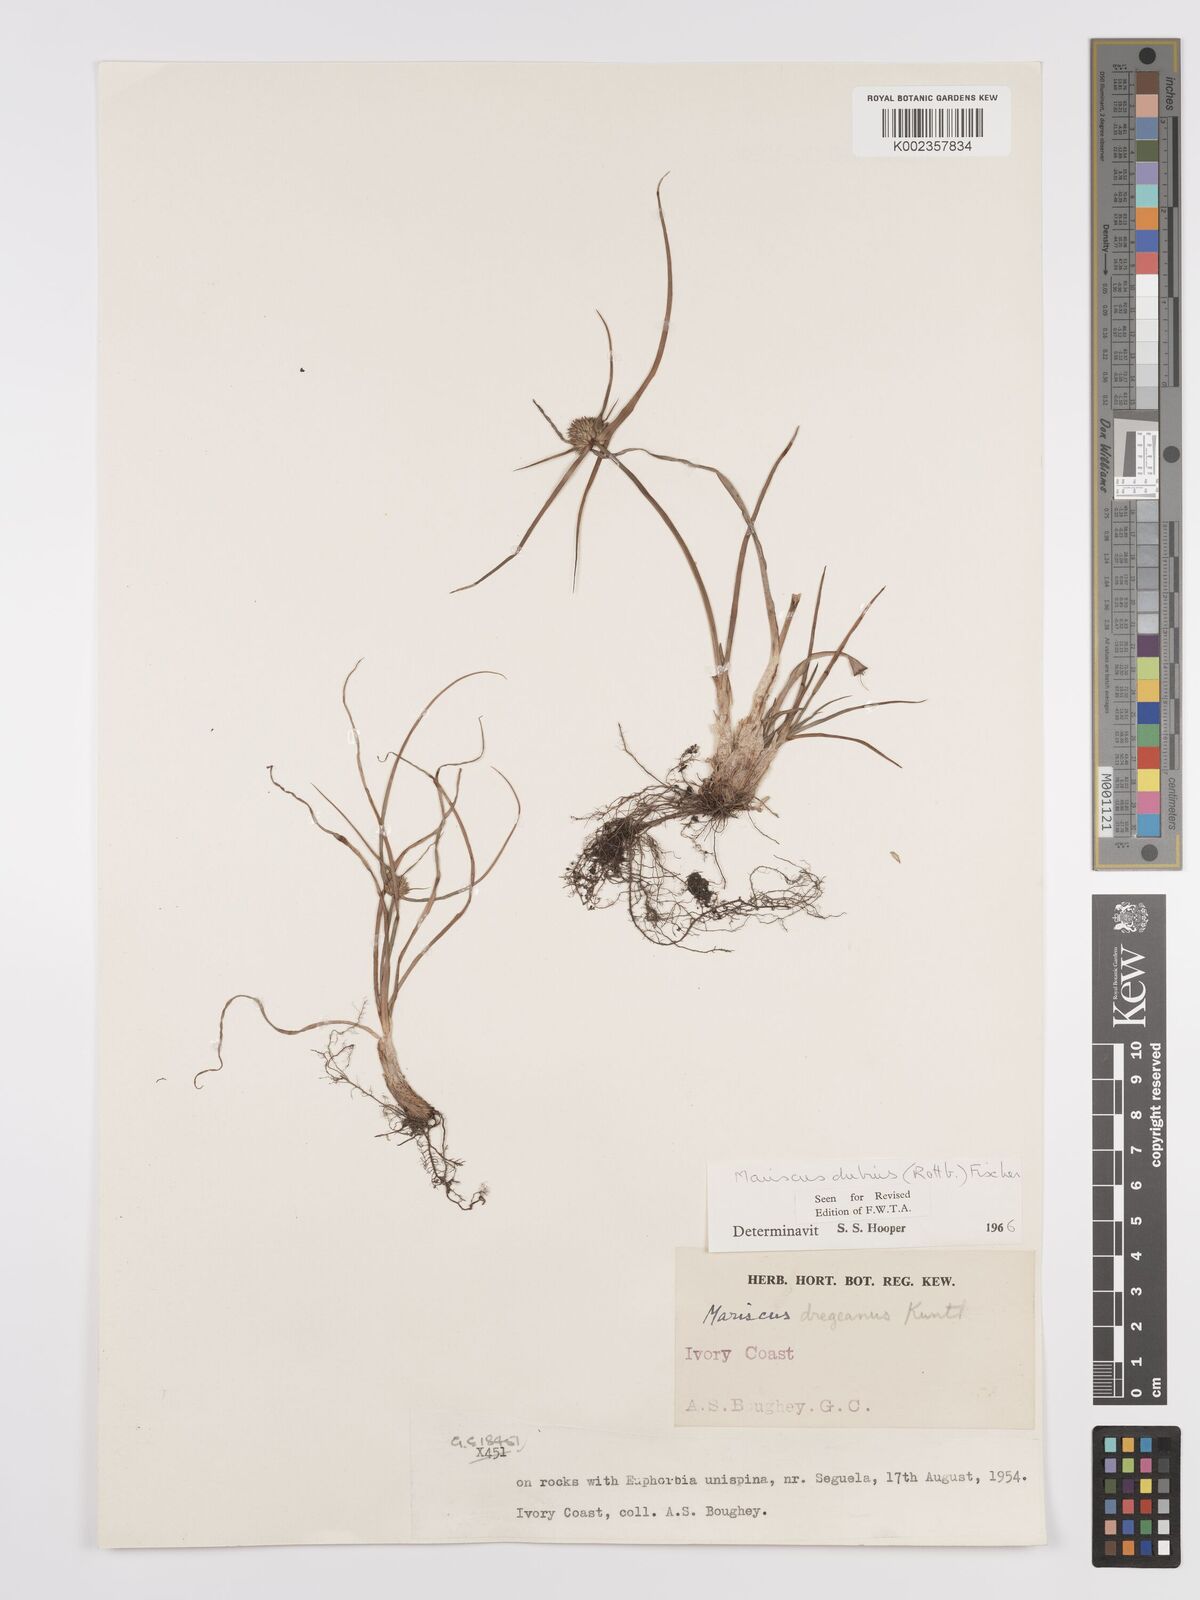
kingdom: Plantae
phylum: Tracheophyta
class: Liliopsida
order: Poales
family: Cyperaceae
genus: Cyperus
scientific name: Cyperus dubius
